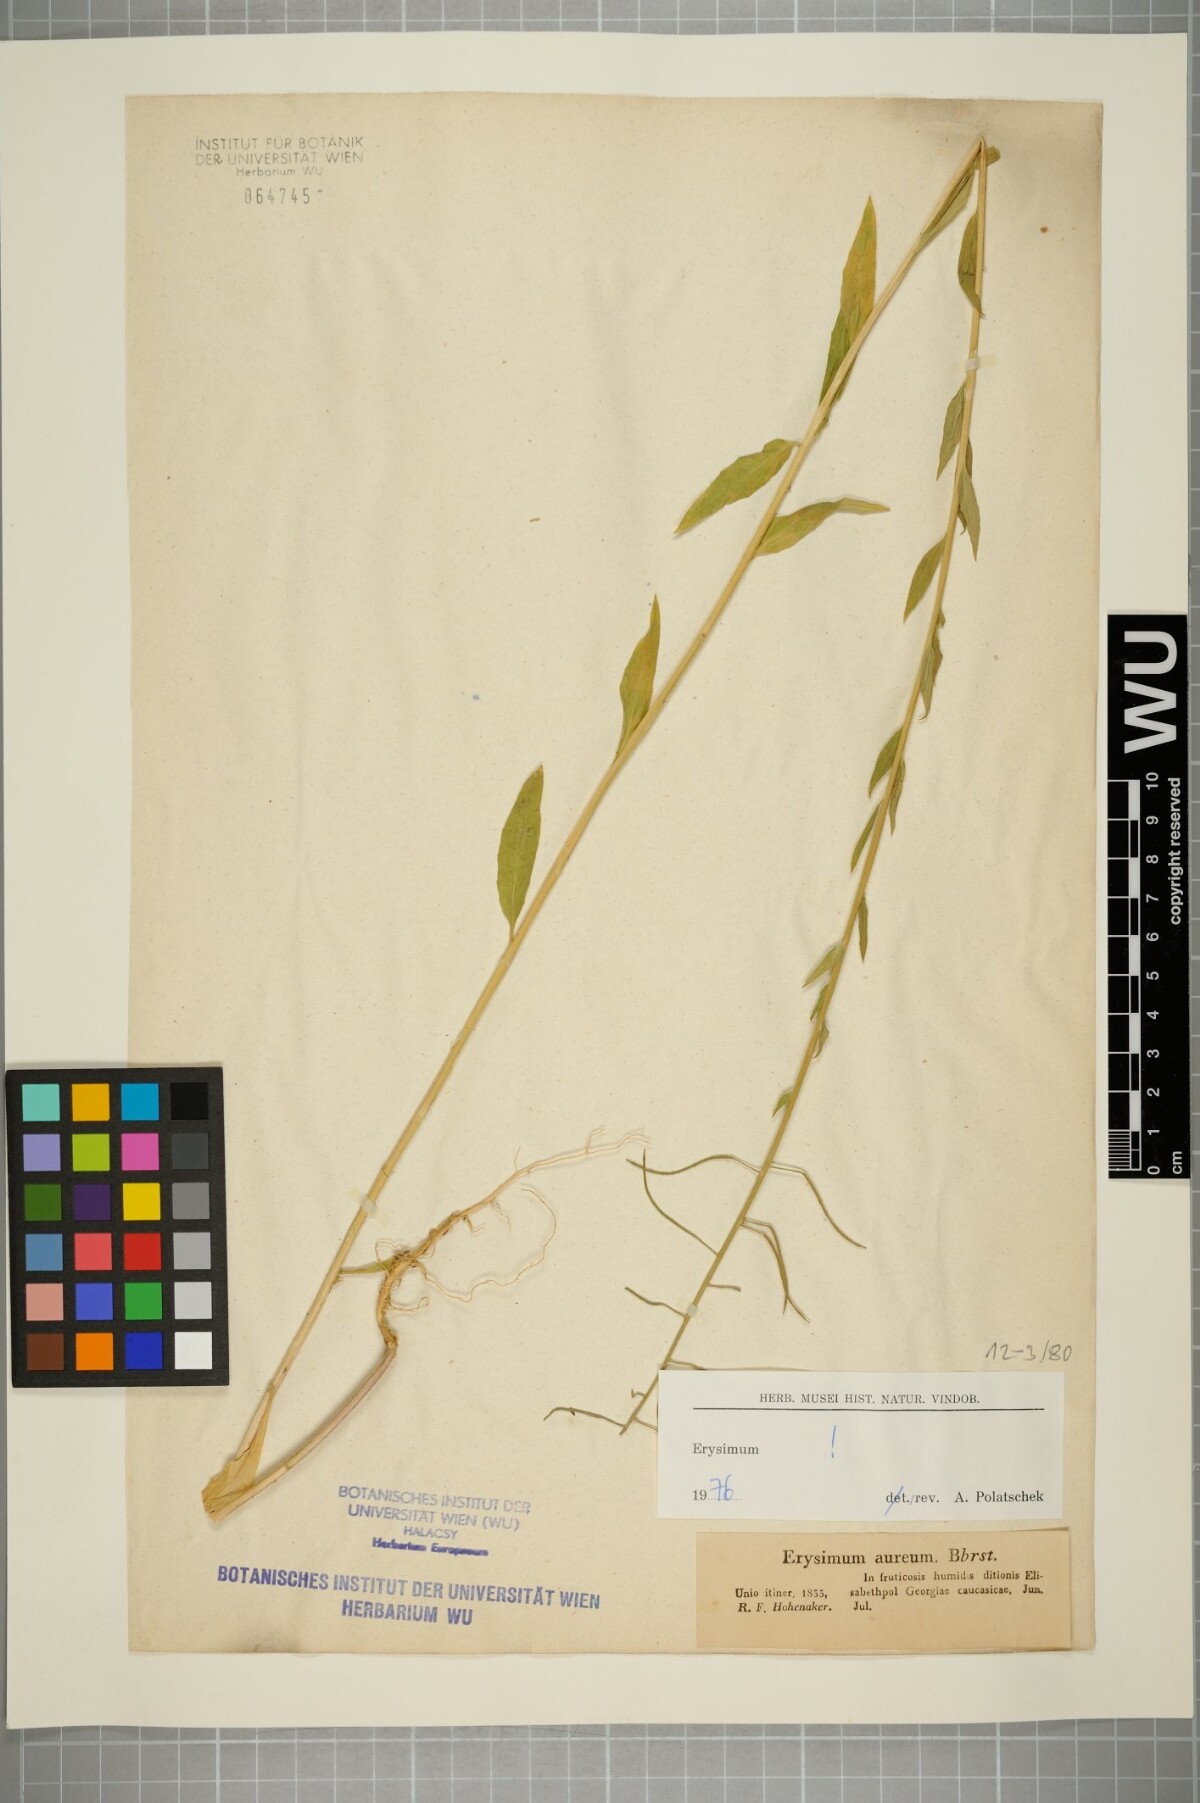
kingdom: Plantae
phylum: Tracheophyta
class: Magnoliopsida
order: Brassicales
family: Brassicaceae
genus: Erysimum
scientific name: Erysimum aureum
